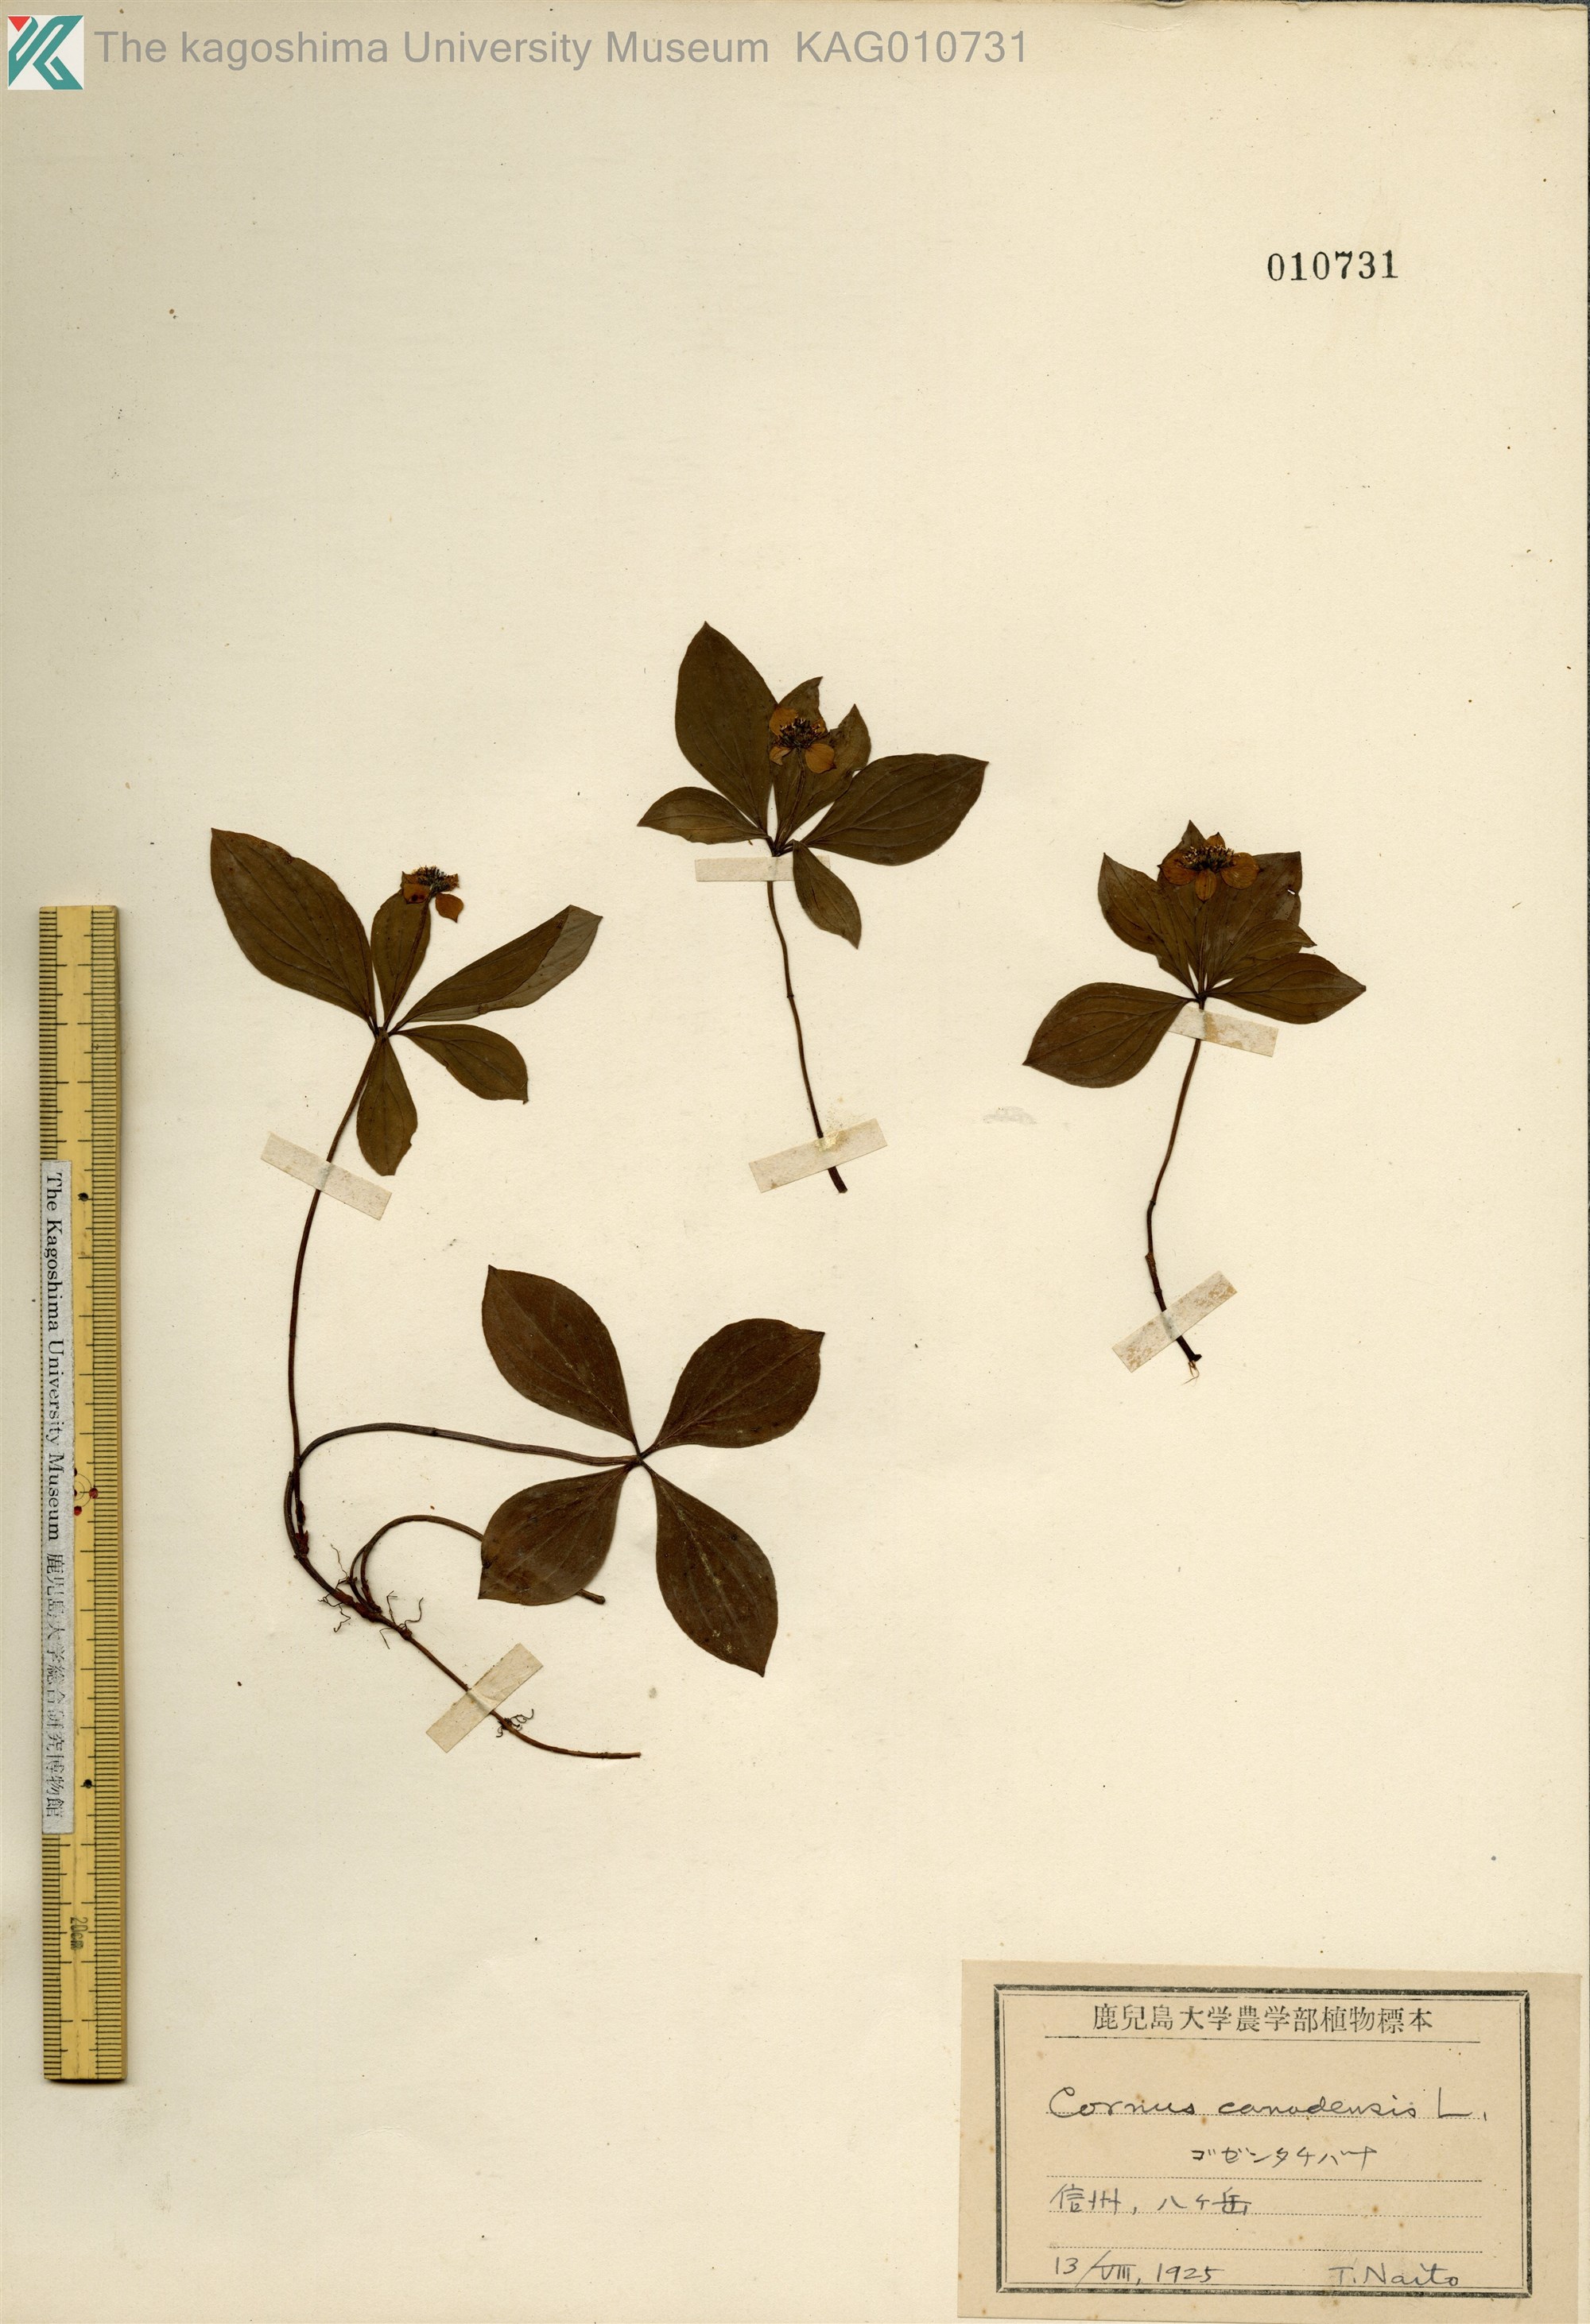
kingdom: Plantae
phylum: Tracheophyta
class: Magnoliopsida
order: Cornales
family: Cornaceae
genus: Cornus
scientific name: Cornus canadensis
